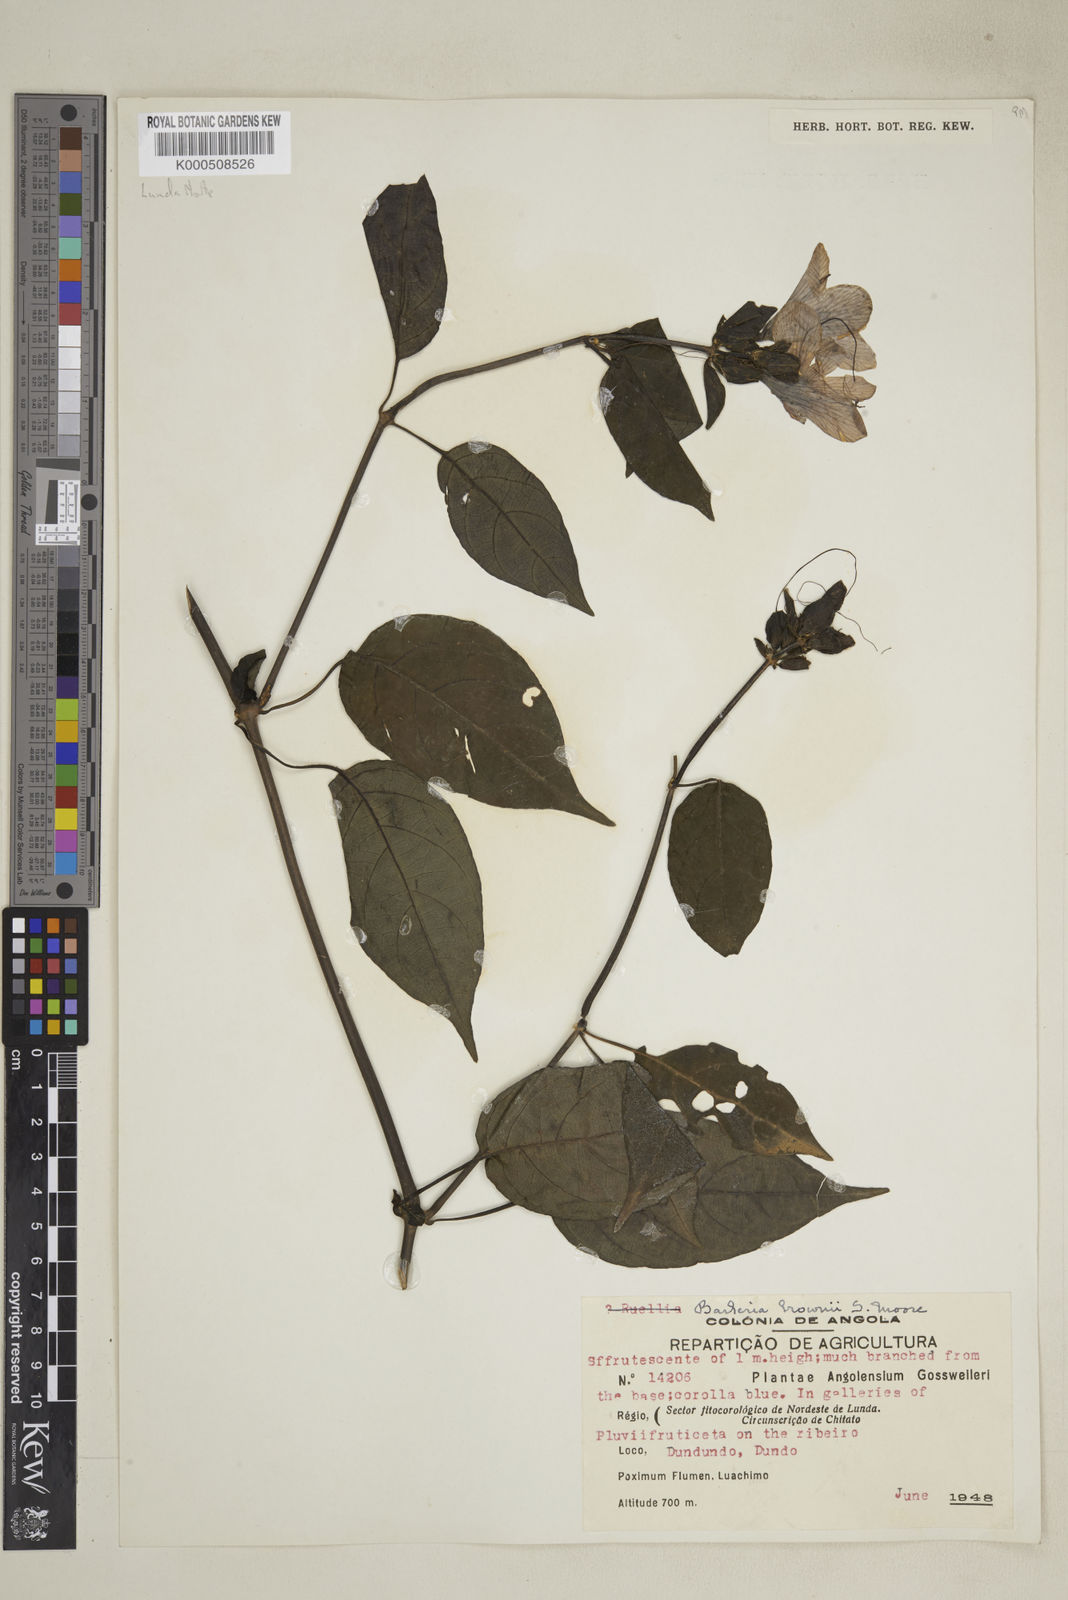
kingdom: Plantae
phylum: Tracheophyta
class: Magnoliopsida
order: Lamiales
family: Acanthaceae
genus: Barleria
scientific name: Barleria brownii
